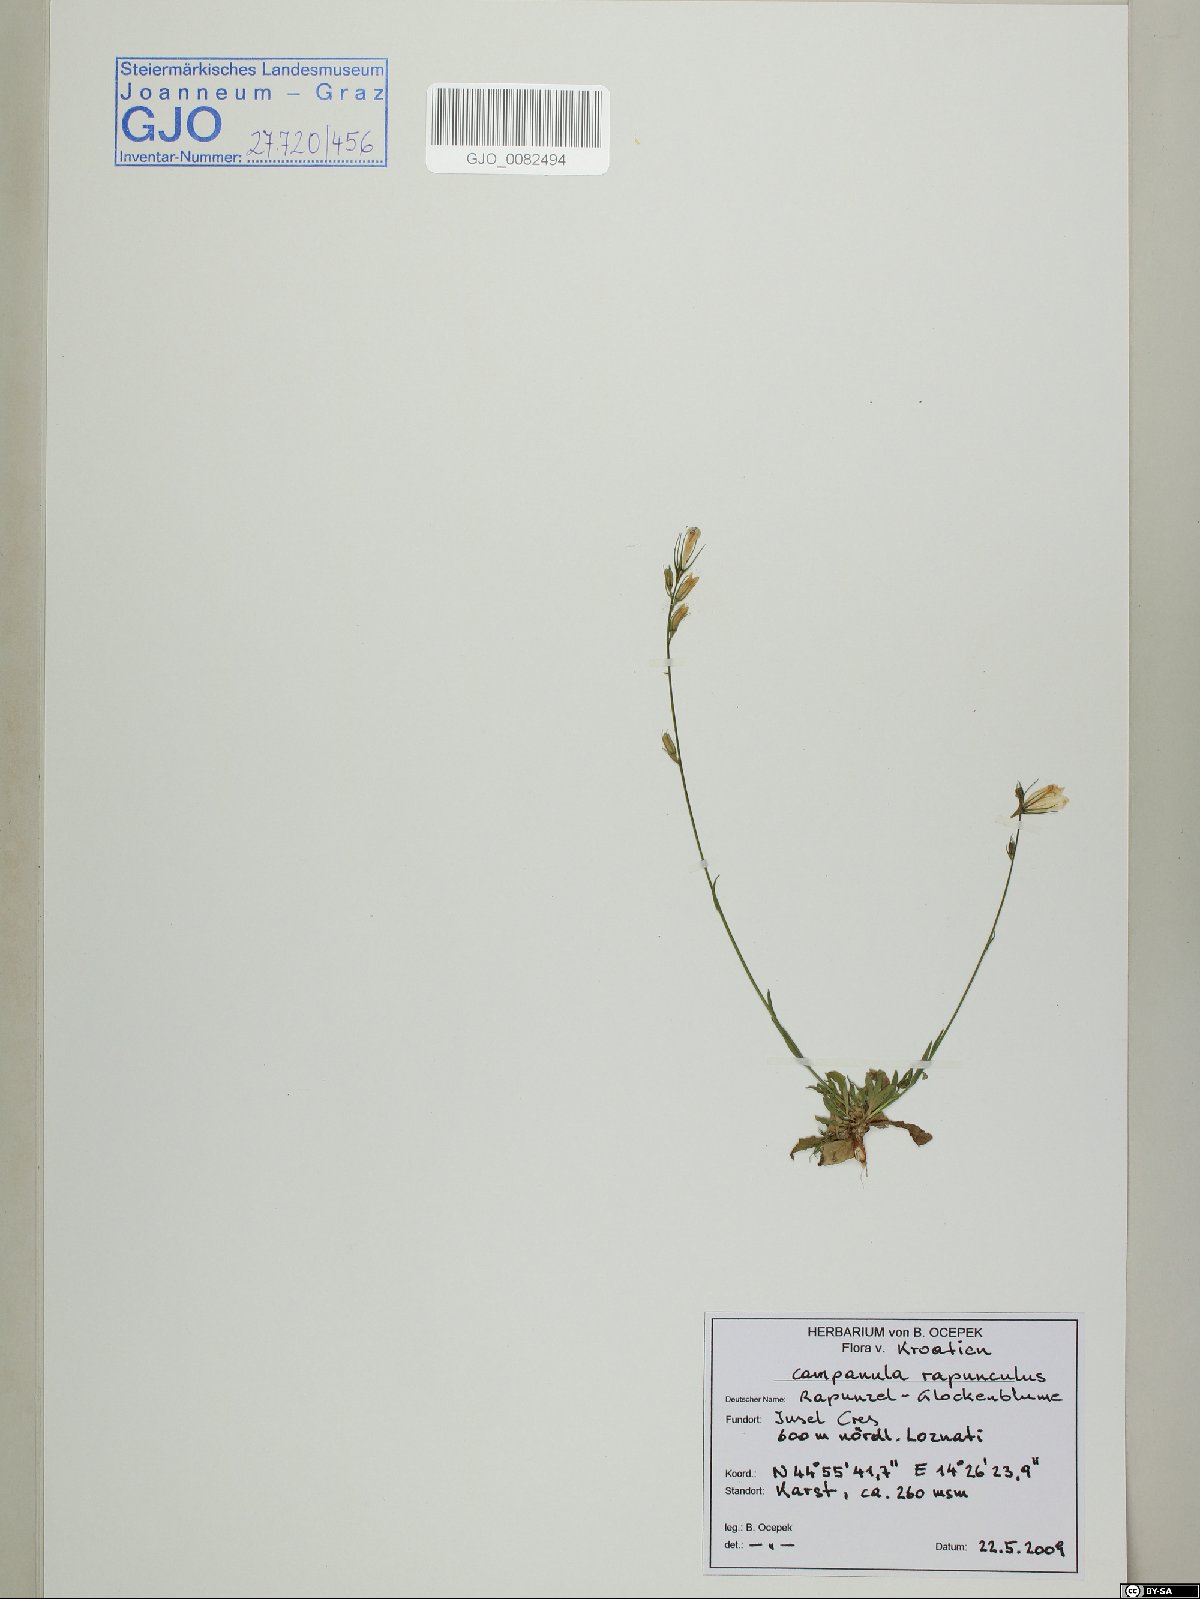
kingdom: Plantae
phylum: Tracheophyta
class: Magnoliopsida
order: Asterales
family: Campanulaceae
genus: Campanula
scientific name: Campanula rapunculus
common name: Rampion bellflower
